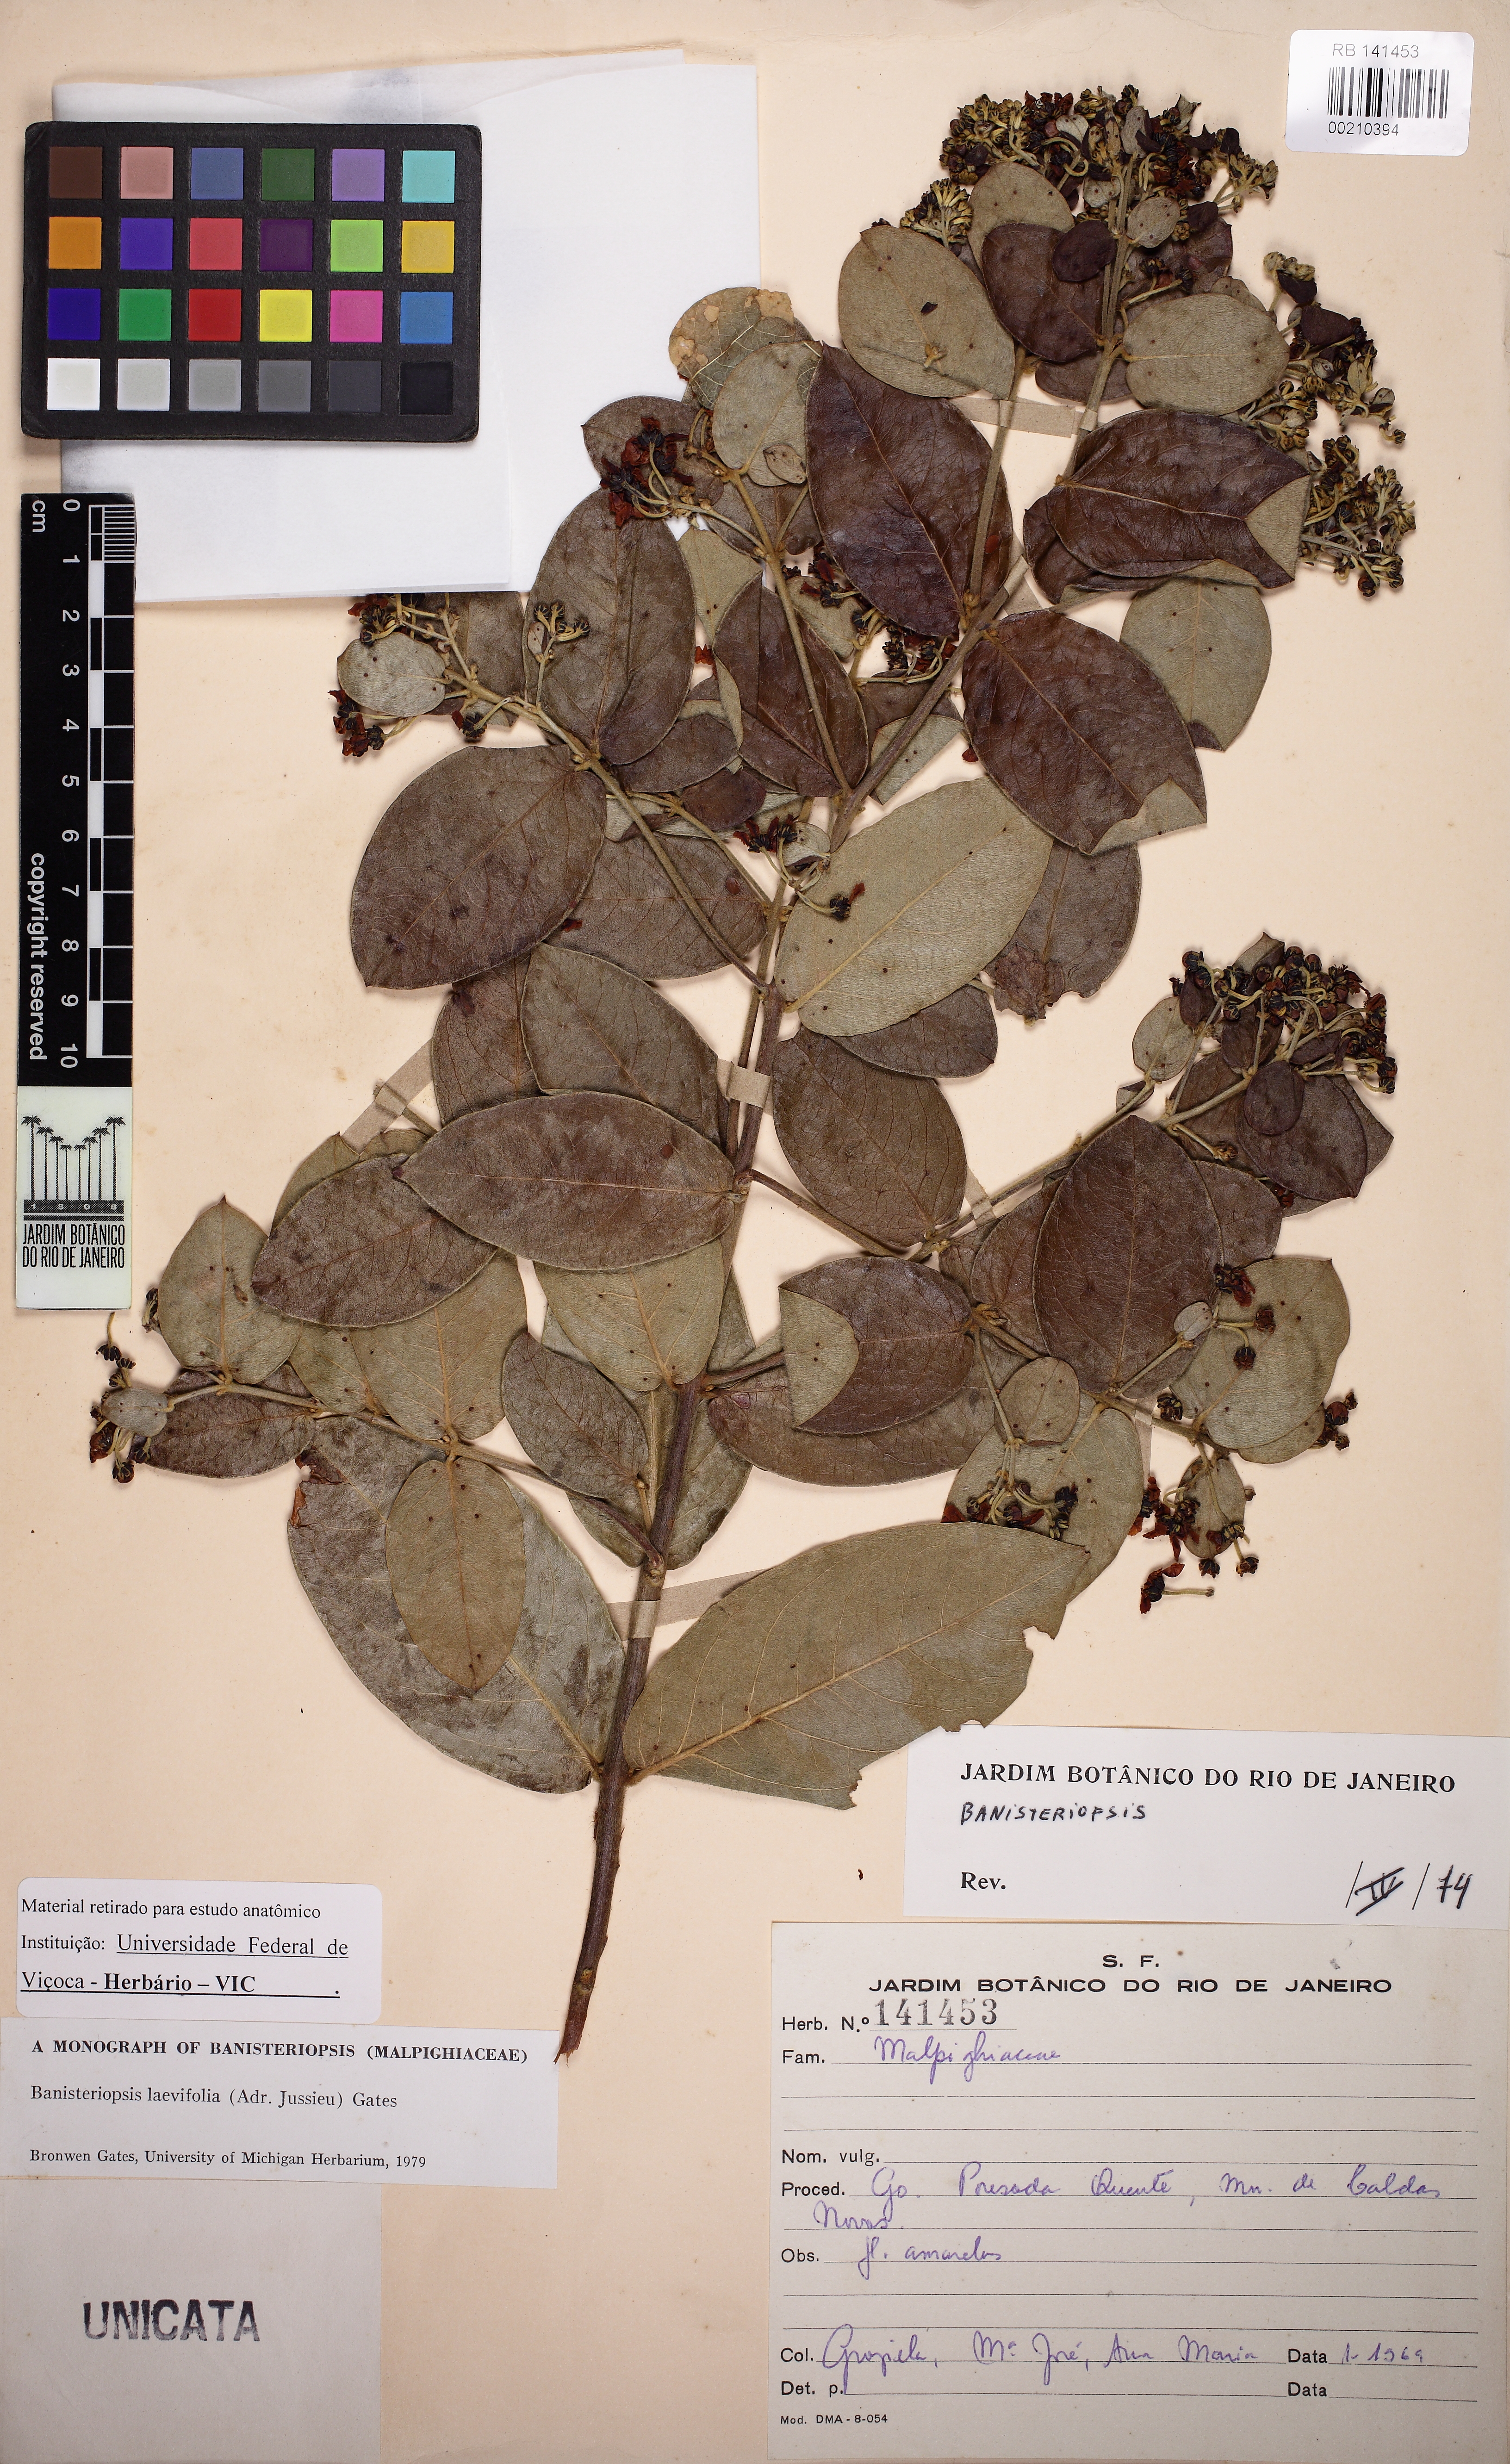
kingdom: Plantae
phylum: Tracheophyta
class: Magnoliopsida
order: Malpighiales
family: Malpighiaceae
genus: Banisteriopsis
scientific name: Banisteriopsis laevifolia
